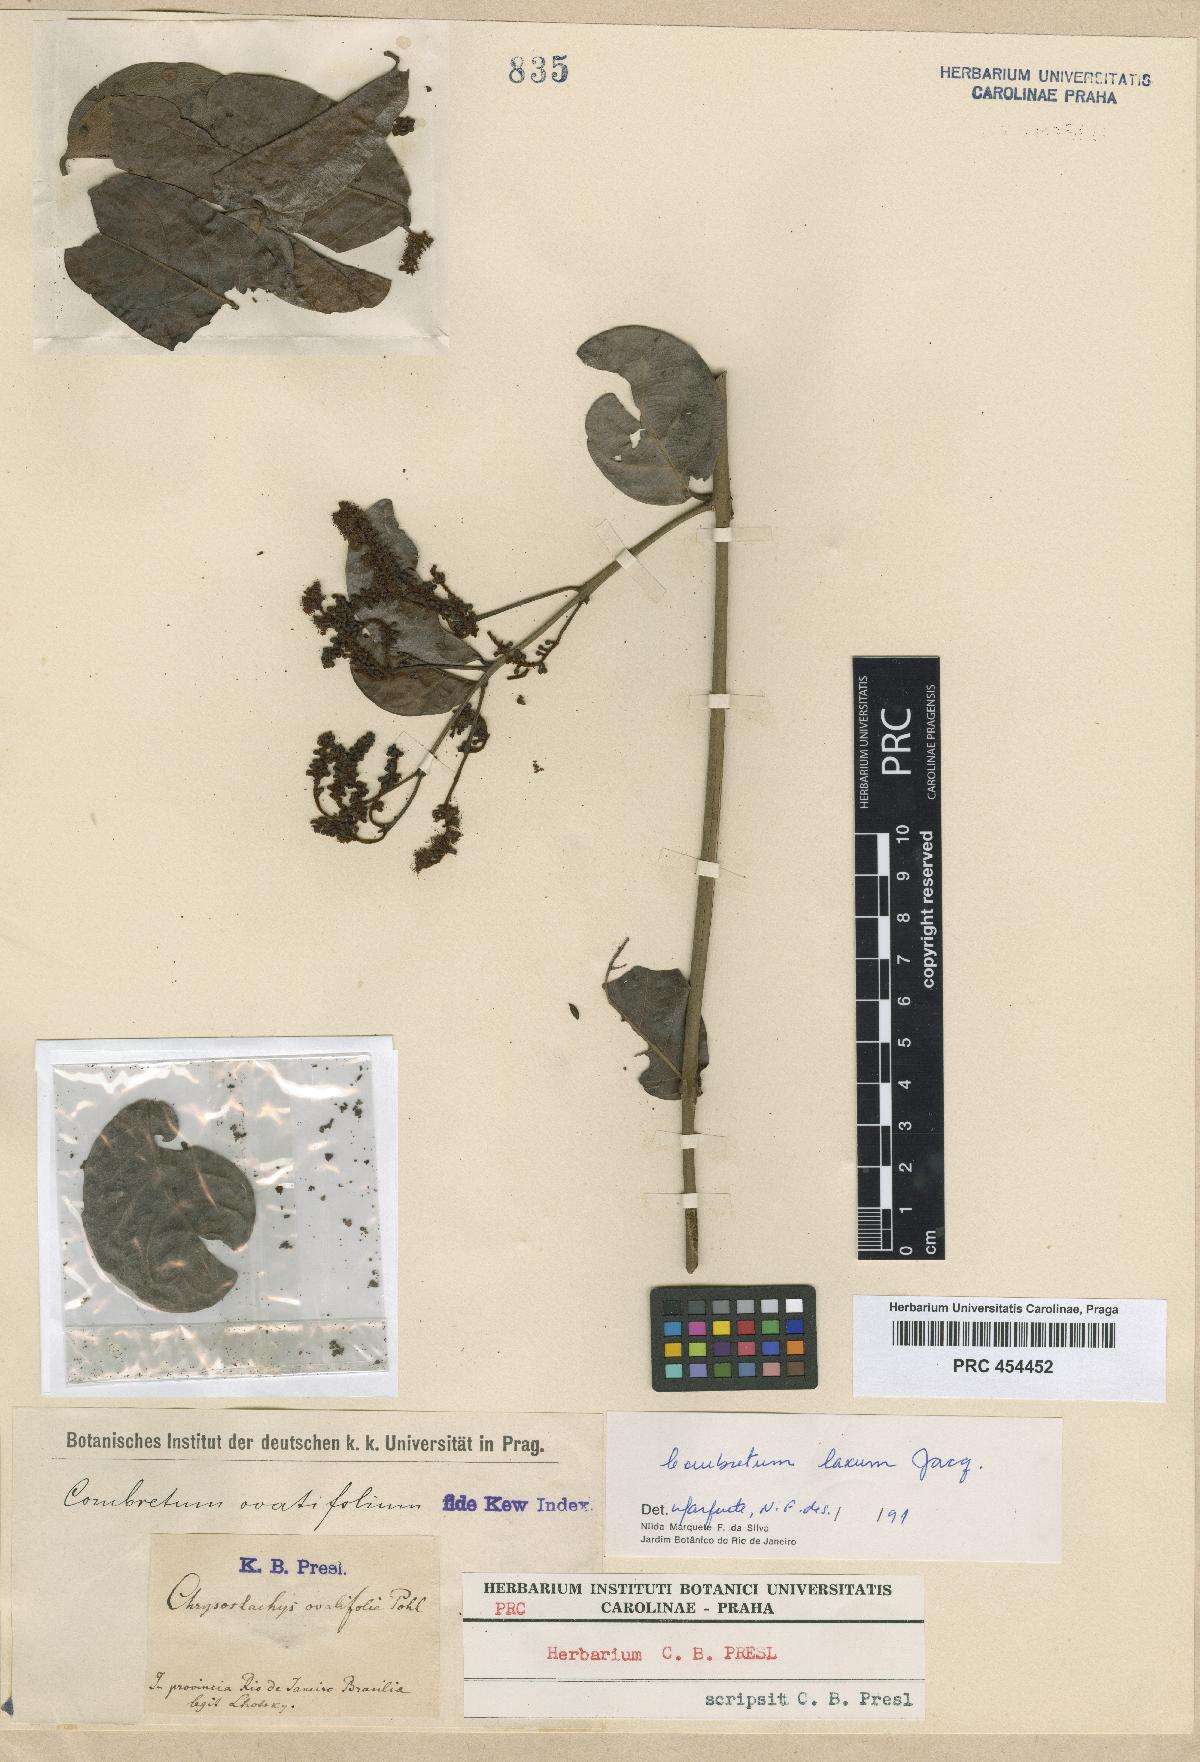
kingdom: Plantae
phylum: Tracheophyta
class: Magnoliopsida
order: Myrtales
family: Combretaceae
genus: Combretum
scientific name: Combretum laxum
